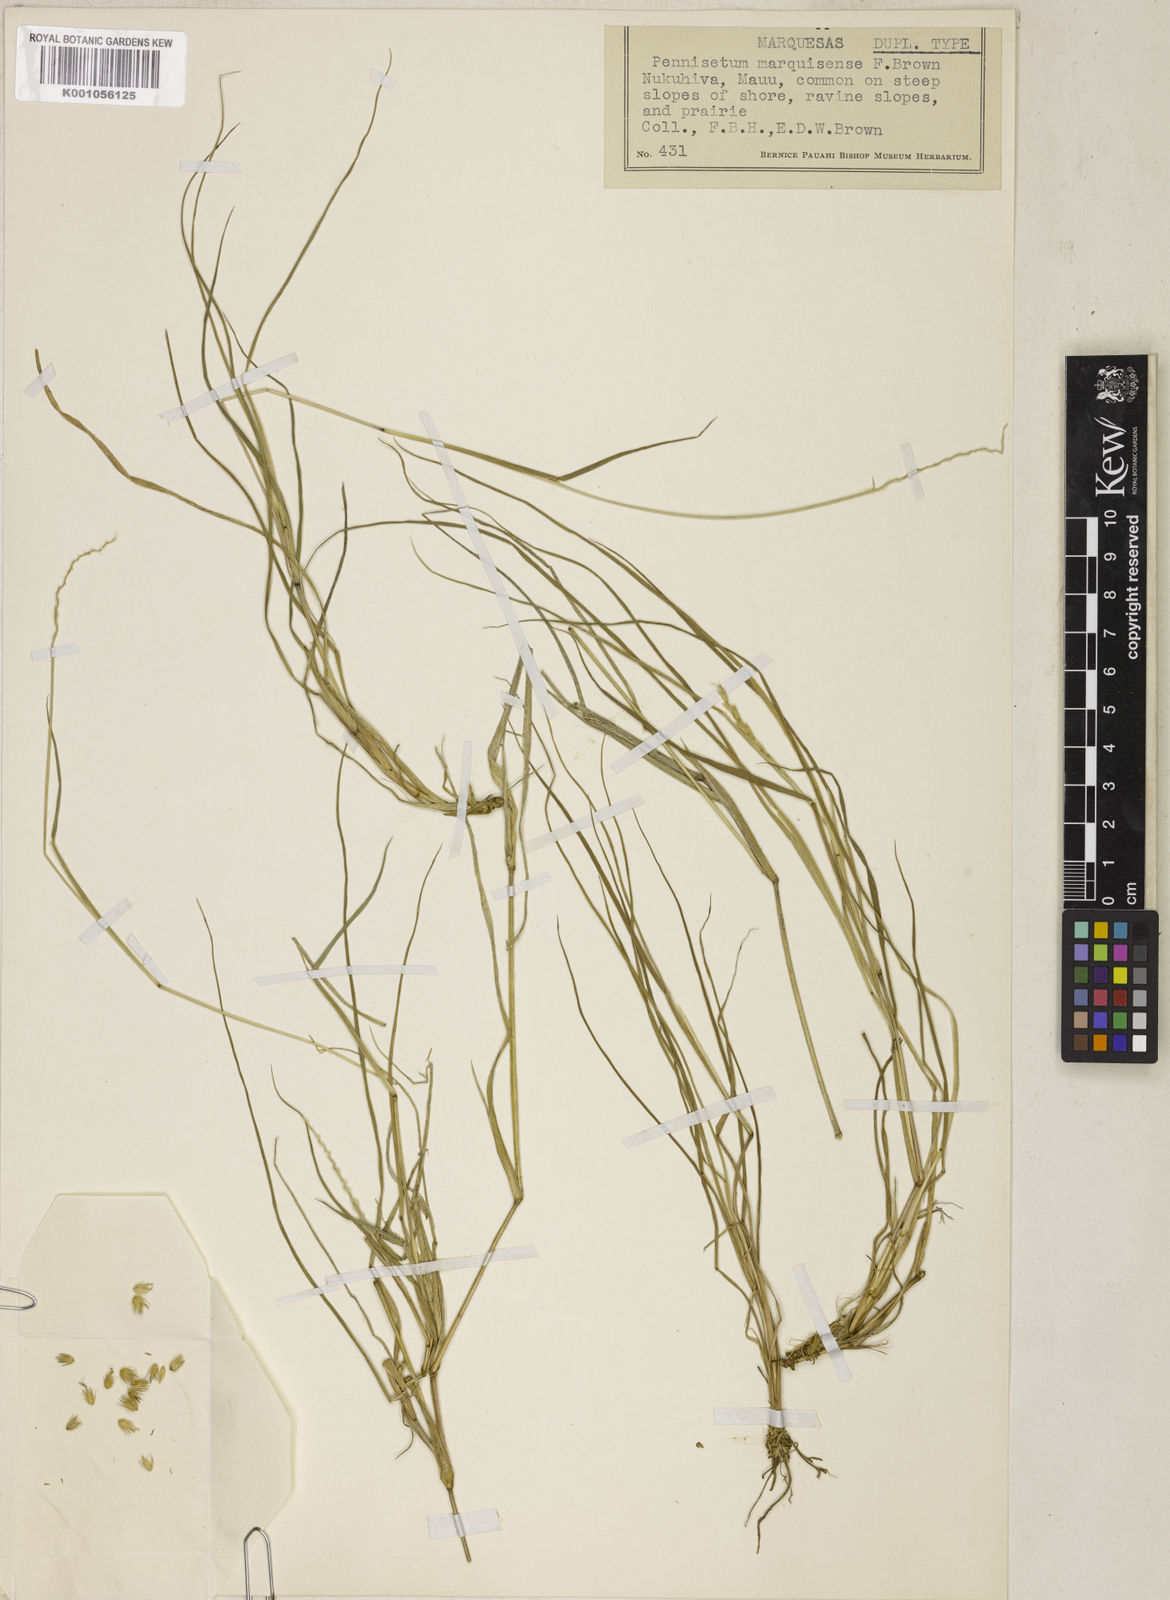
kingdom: Plantae
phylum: Tracheophyta
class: Liliopsida
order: Poales
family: Poaceae
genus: Cenchrus
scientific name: Cenchrus caliculatus
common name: Large bur grass
